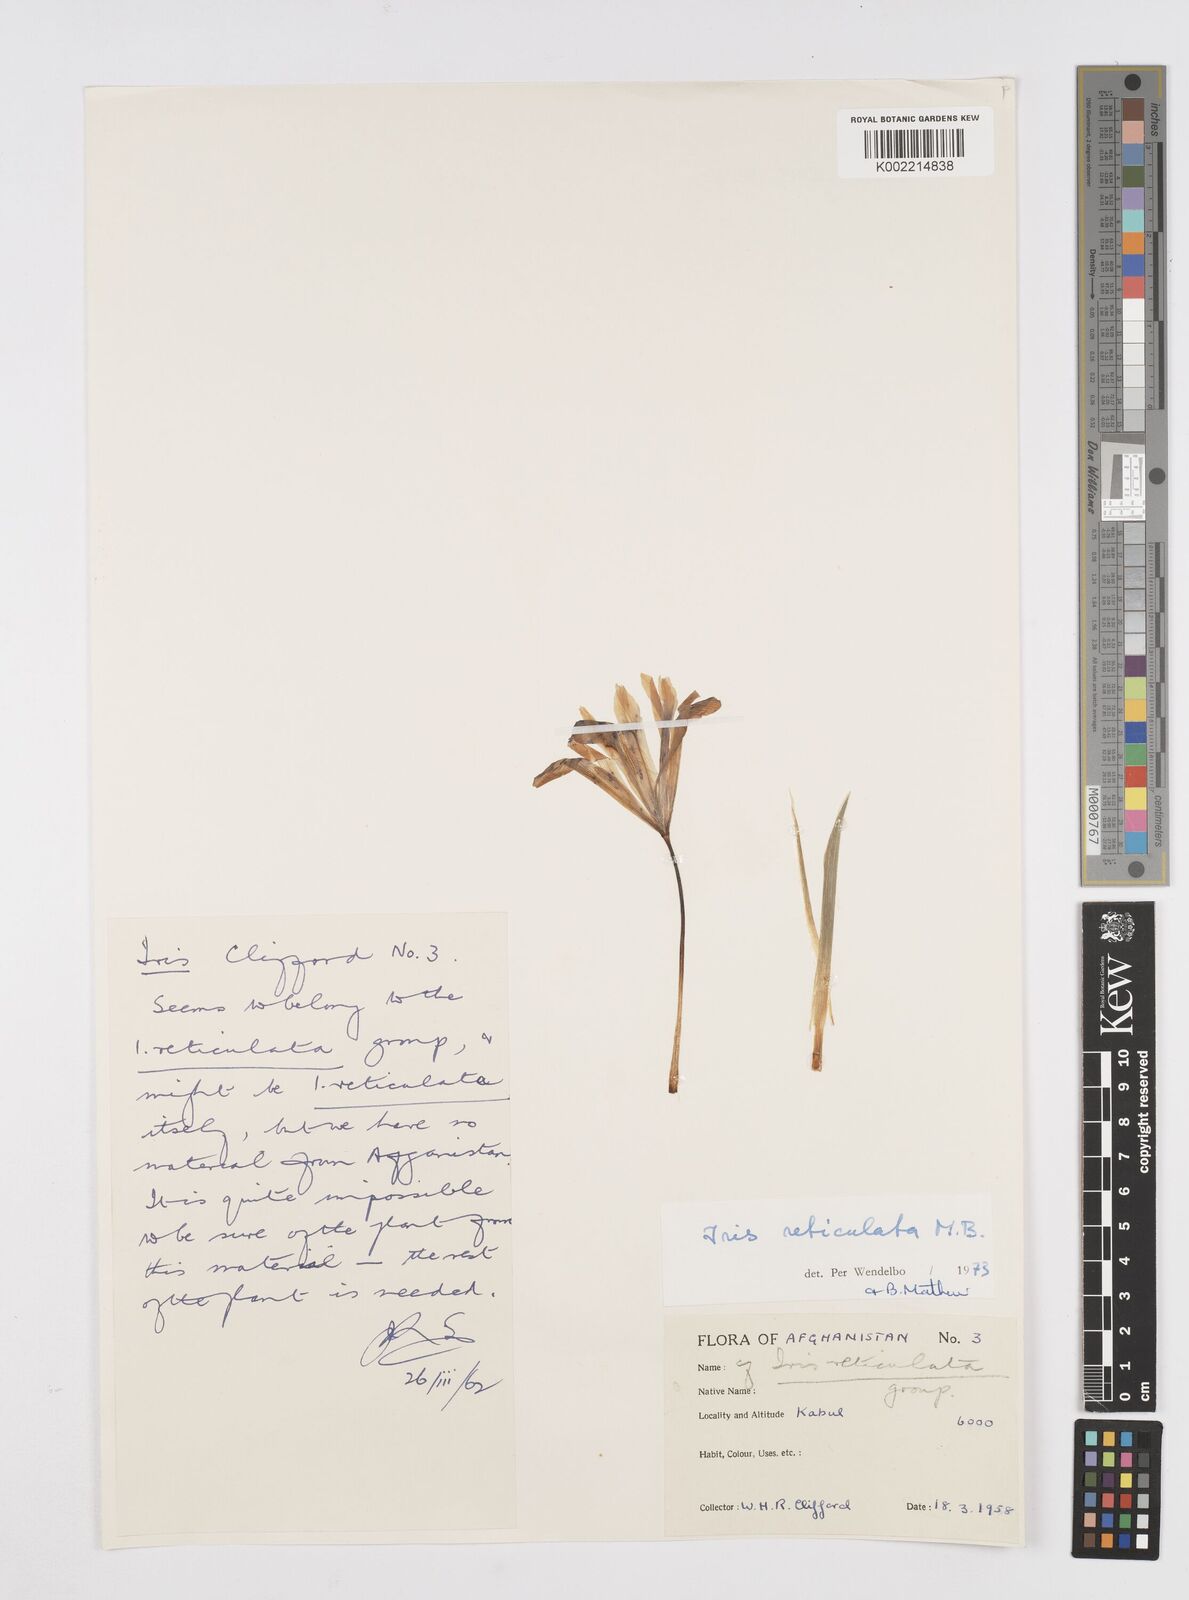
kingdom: Plantae
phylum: Tracheophyta
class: Liliopsida
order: Asparagales
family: Iridaceae
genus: Iris
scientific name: Iris reticulata
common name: Netted iris
